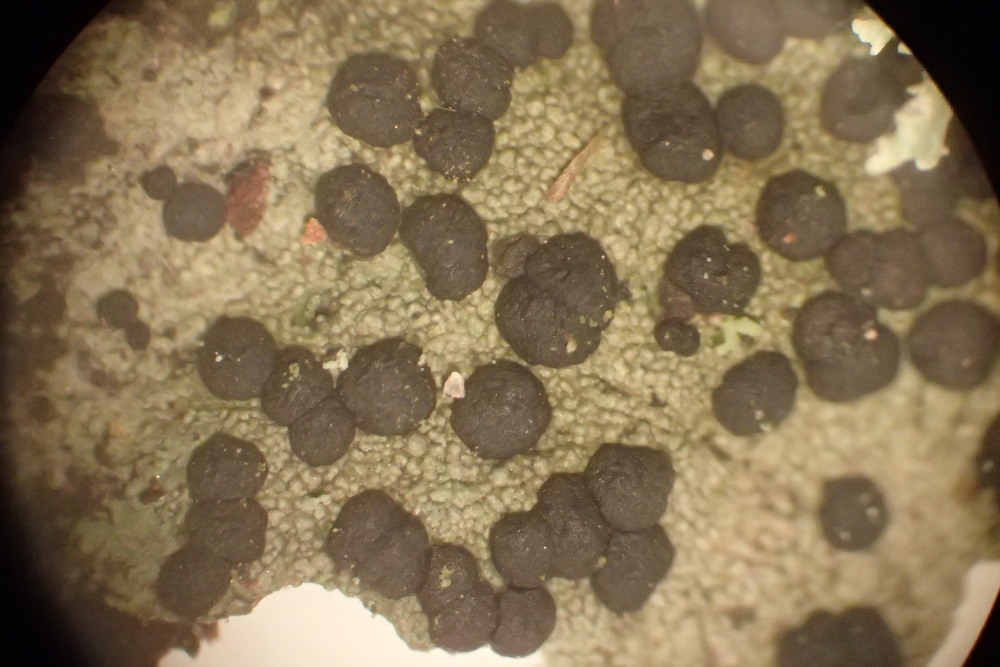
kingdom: Fungi
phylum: Ascomycota
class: Lecanoromycetes
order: Lecanorales
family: Lecanoraceae
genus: Lecidella
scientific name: Lecidella elaeochroma
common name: grågrøn skivelav
